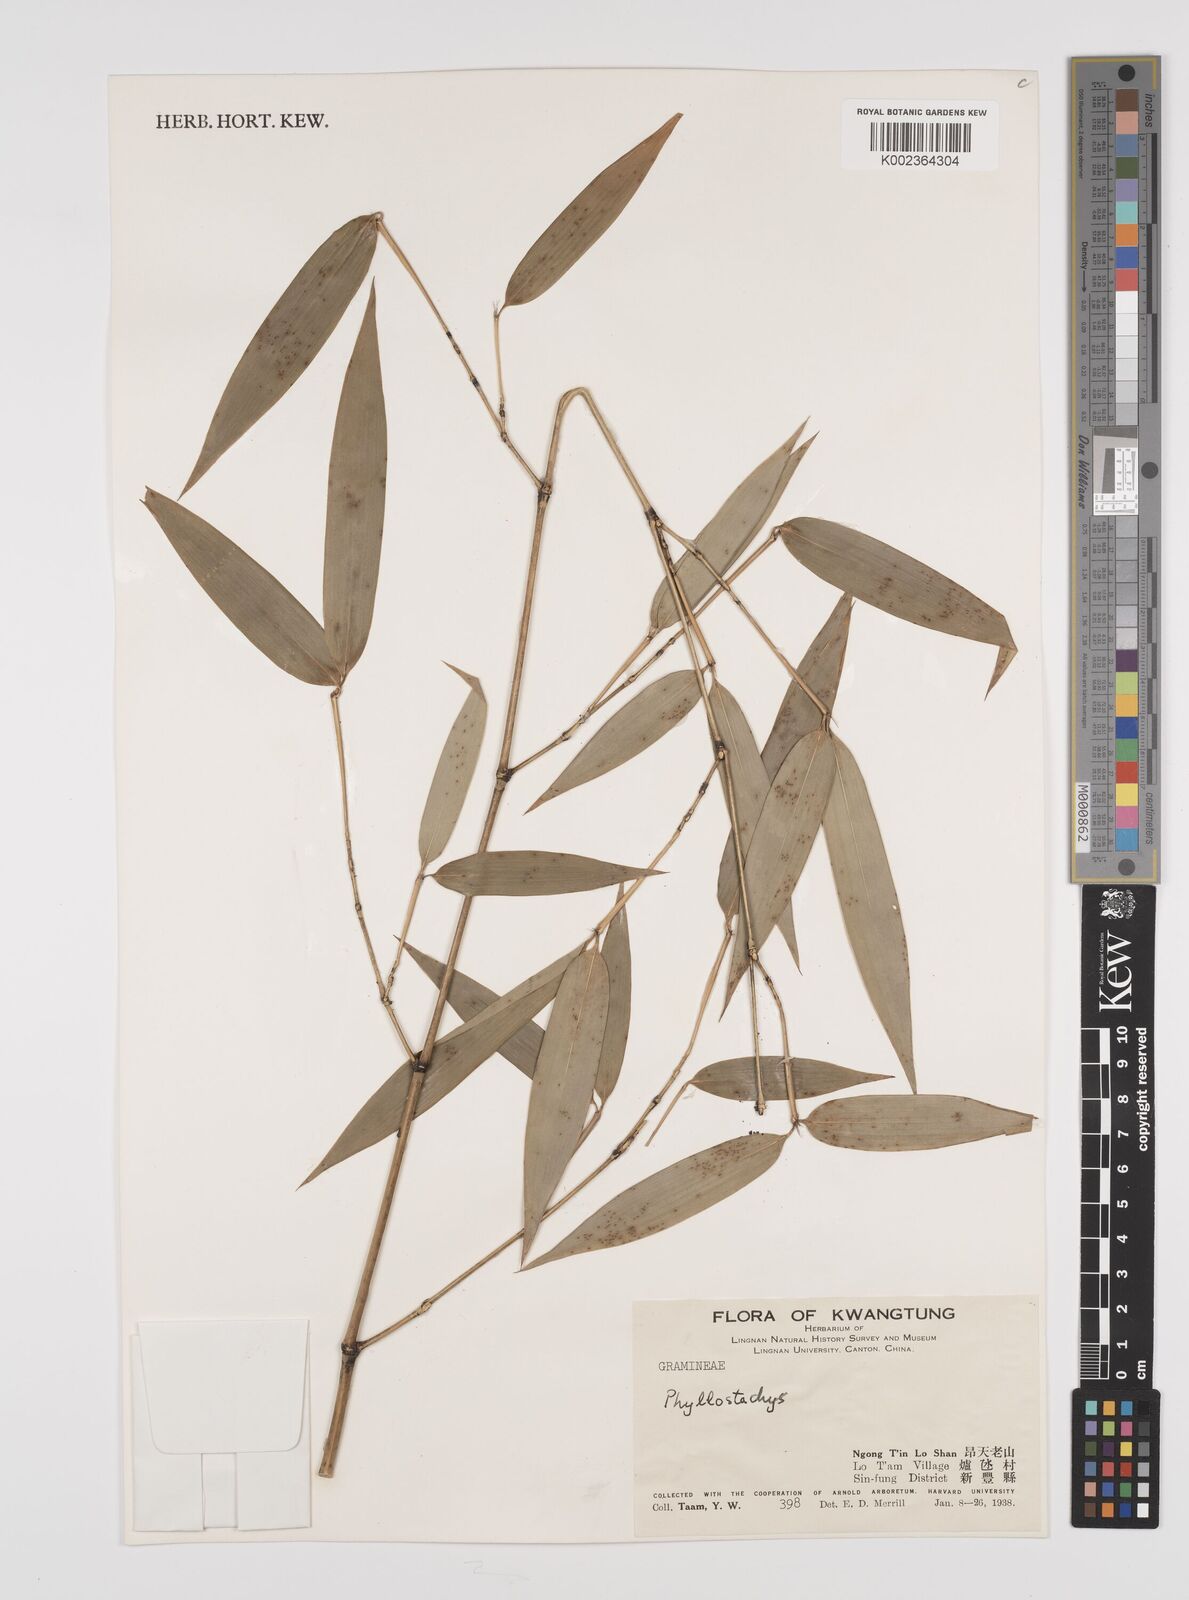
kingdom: Plantae
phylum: Tracheophyta
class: Liliopsida
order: Poales
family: Poaceae
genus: Phyllostachys
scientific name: Phyllostachys
